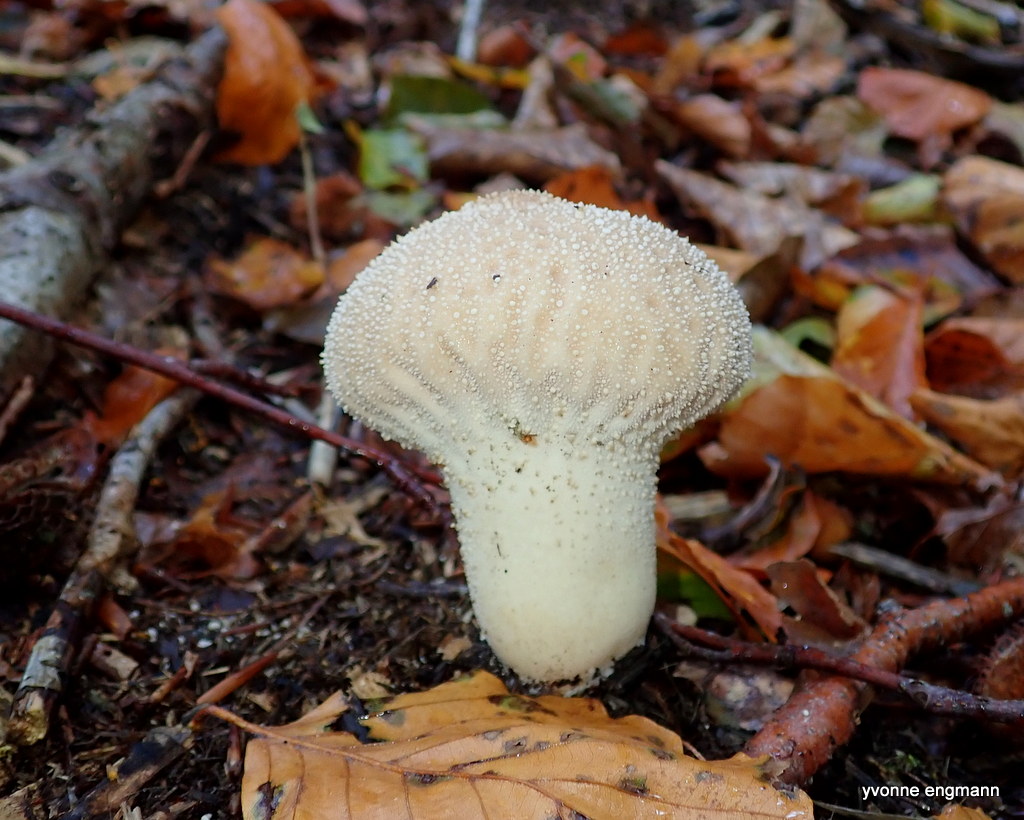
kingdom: Fungi
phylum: Basidiomycota
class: Agaricomycetes
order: Agaricales
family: Lycoperdaceae
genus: Lycoperdon
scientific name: Lycoperdon perlatum
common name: krystal-støvbold
